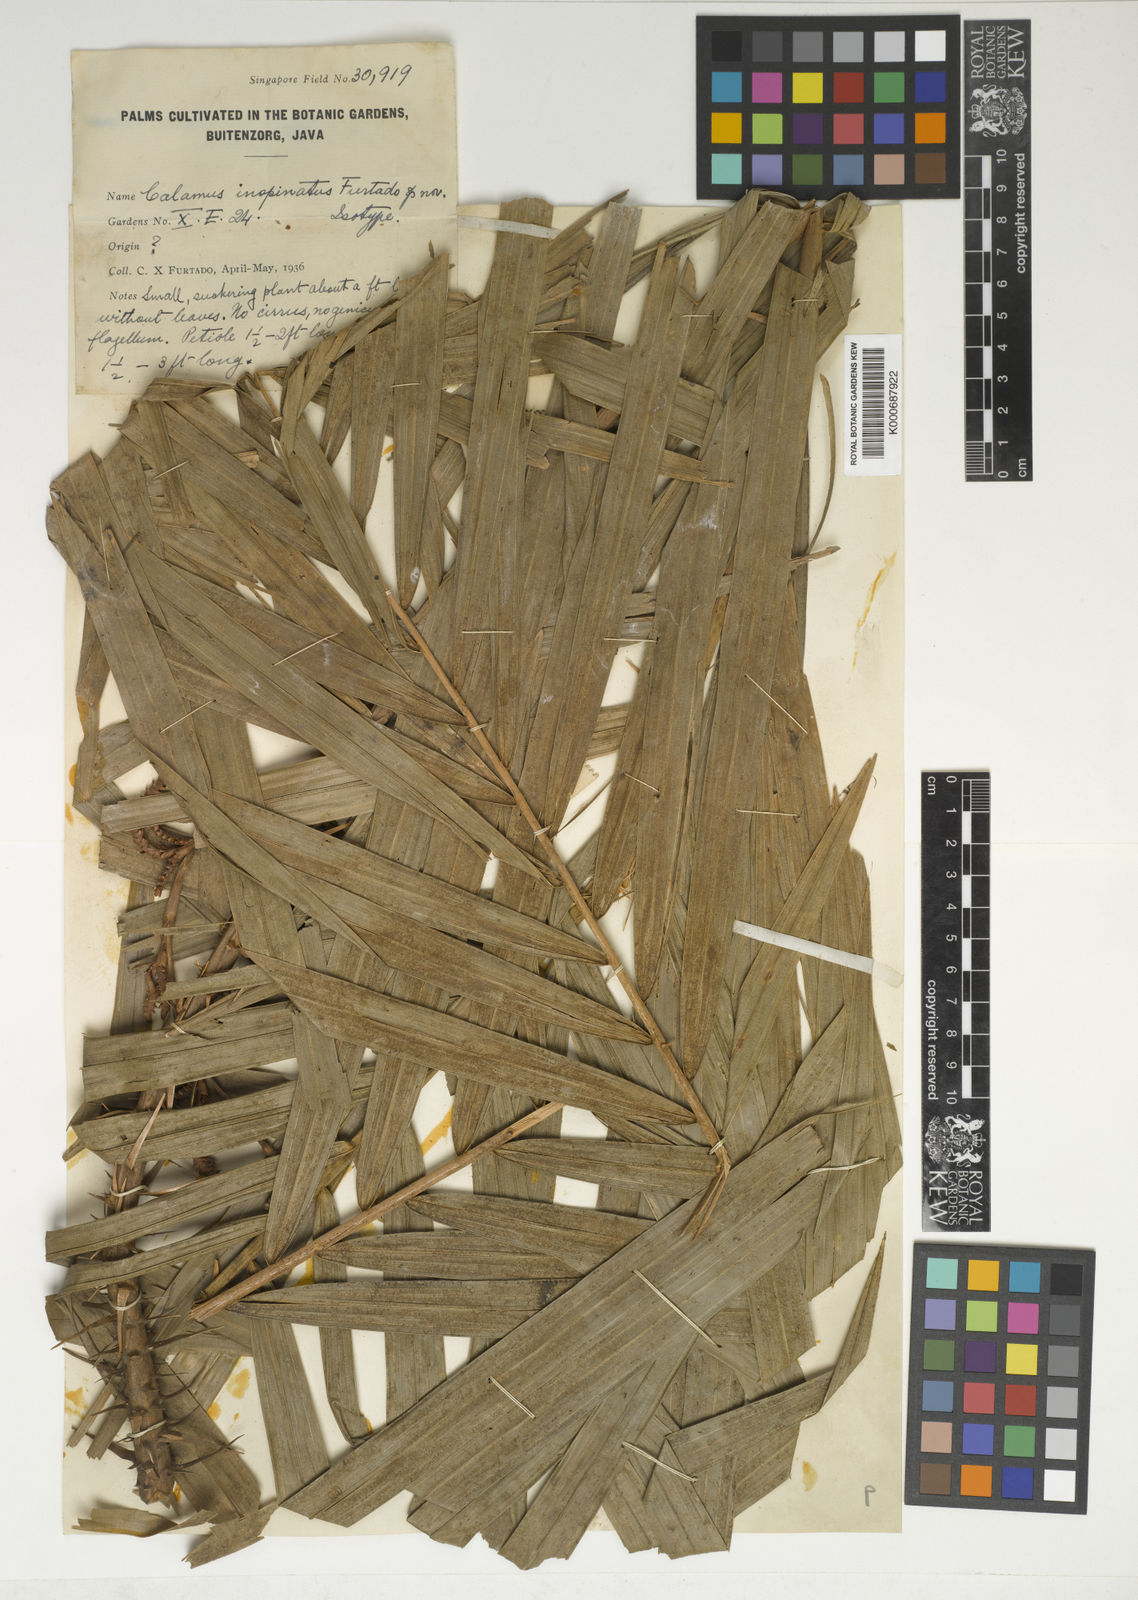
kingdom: Plantae
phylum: Tracheophyta
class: Liliopsida
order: Arecales
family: Arecaceae
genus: Calamus
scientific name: Calamus castaneus
